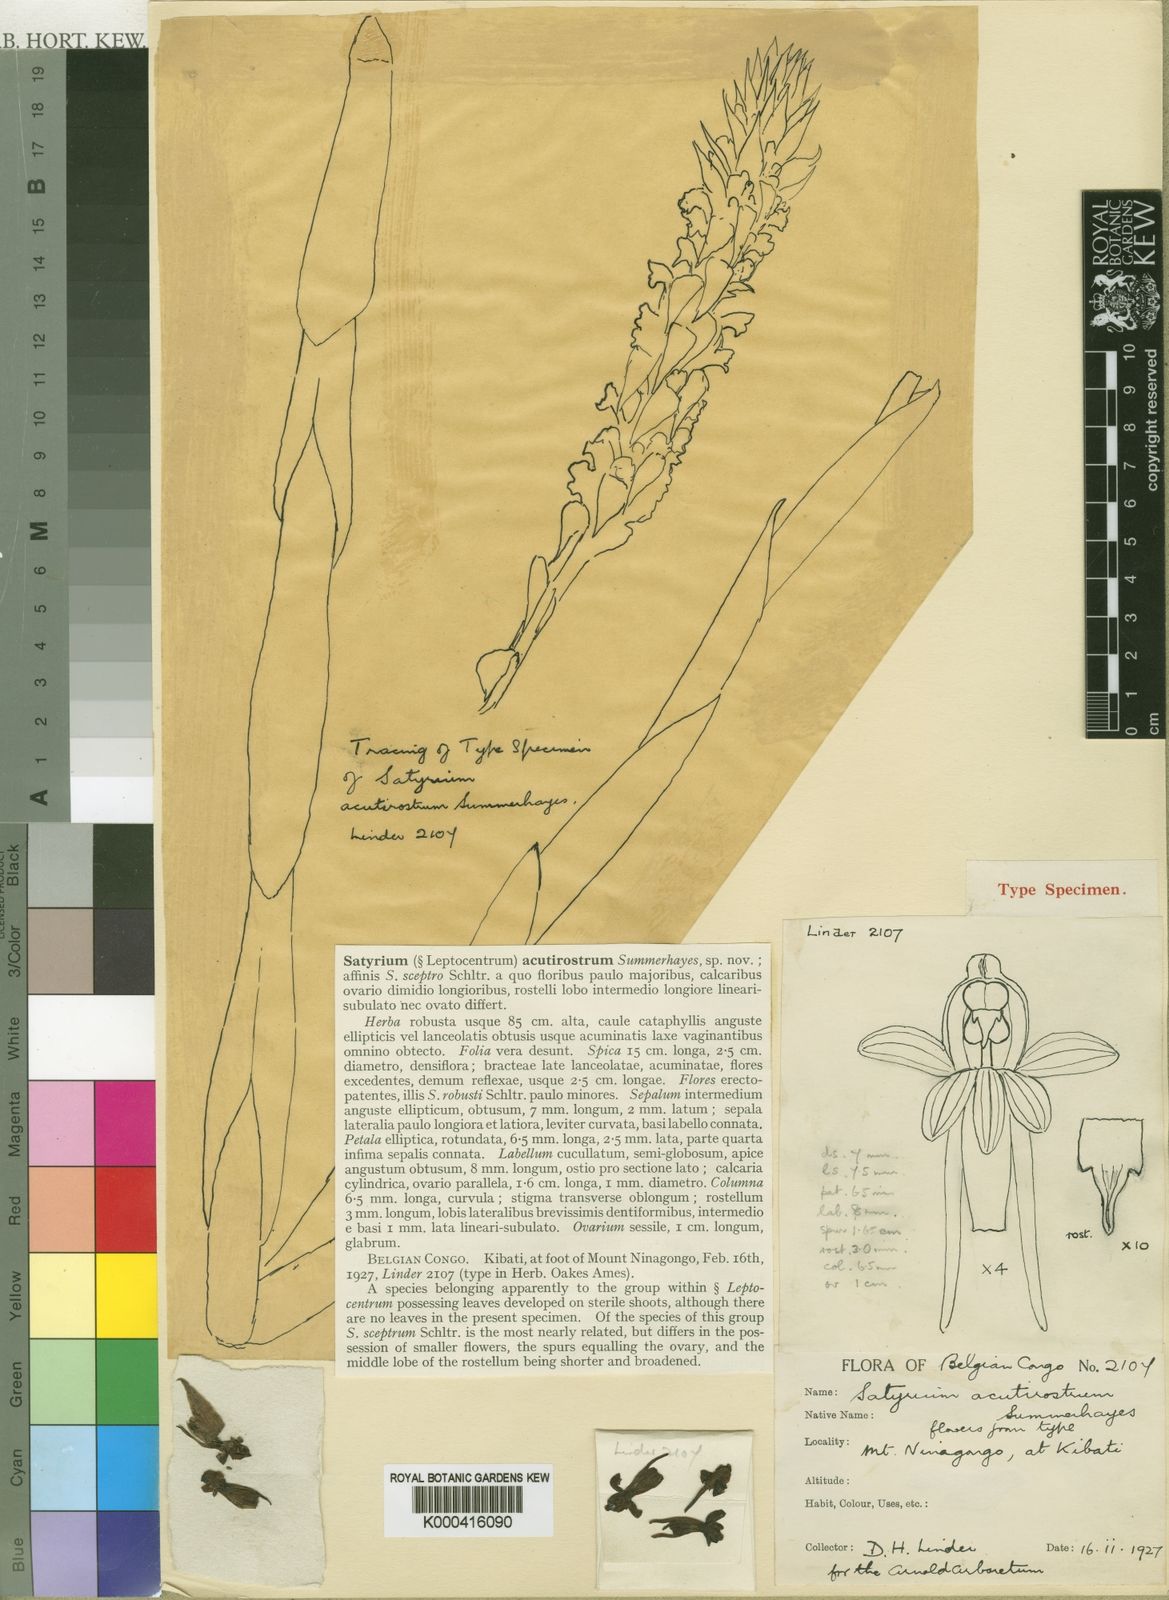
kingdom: Plantae
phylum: Tracheophyta
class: Liliopsida
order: Asparagales
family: Orchidaceae
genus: Satyrium
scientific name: Satyrium sceptrum
